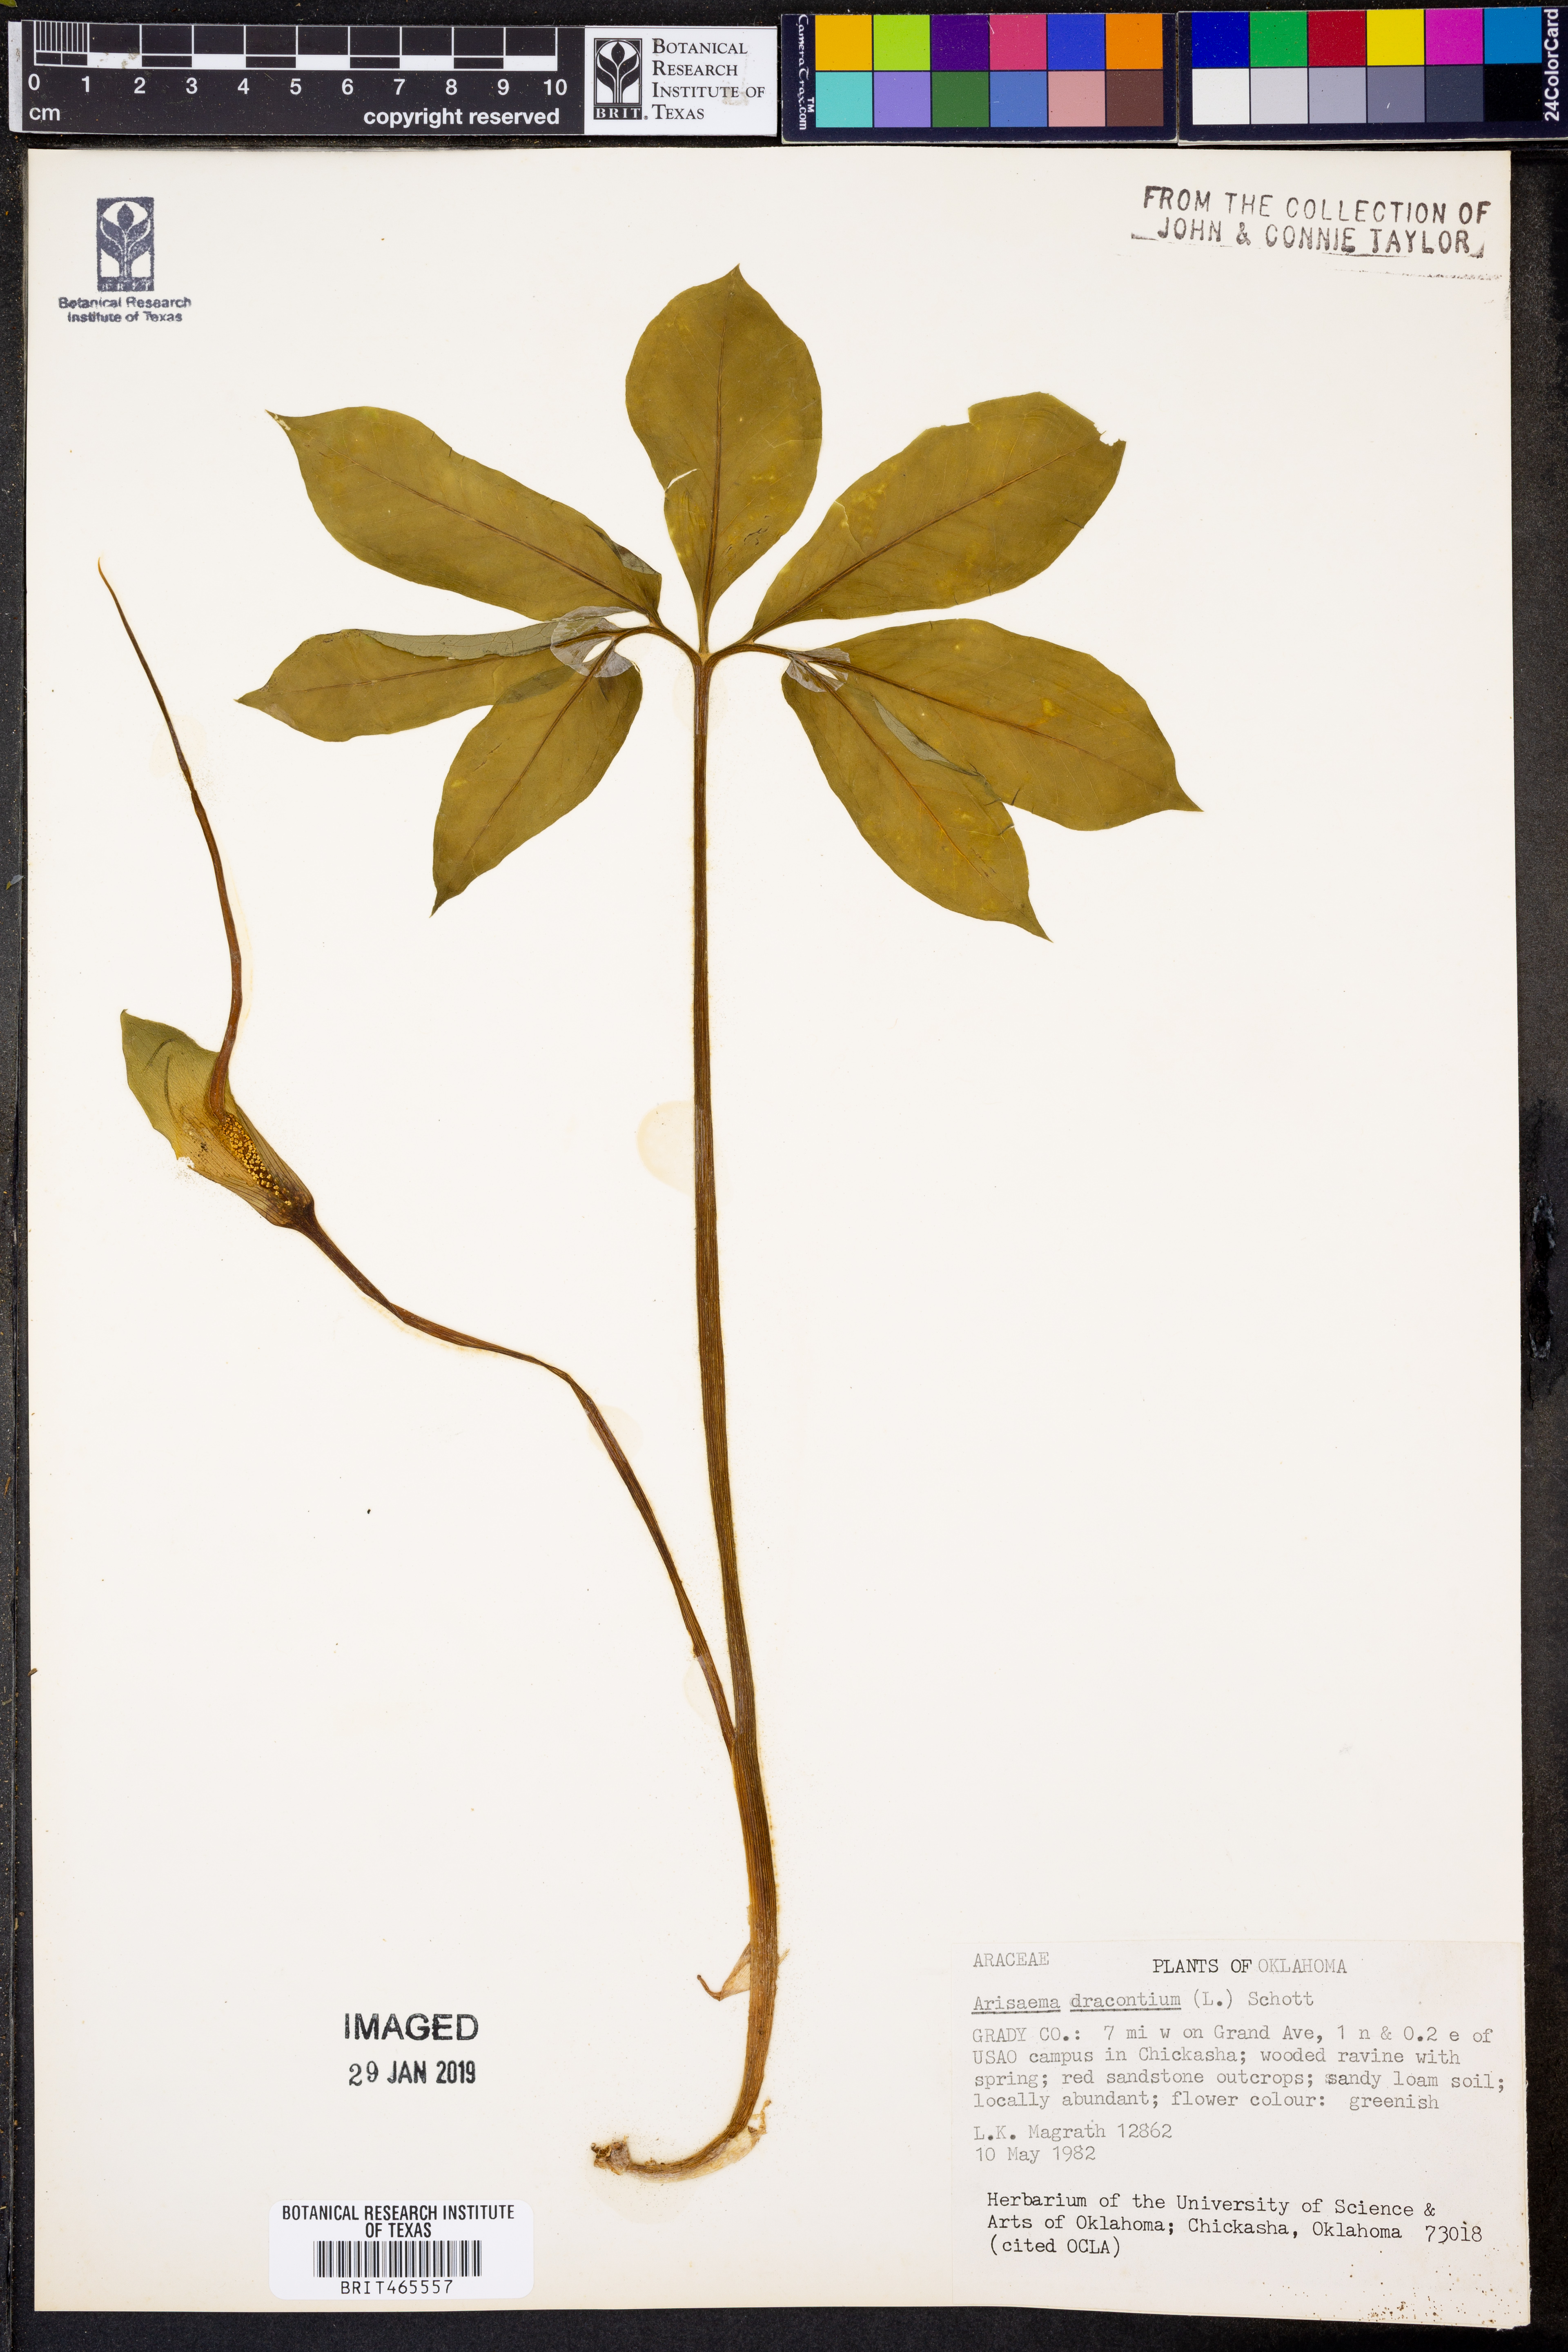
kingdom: Plantae
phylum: Tracheophyta
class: Liliopsida
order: Alismatales
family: Araceae
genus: Arisaema
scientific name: Arisaema dracontium
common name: Dragon-arum
